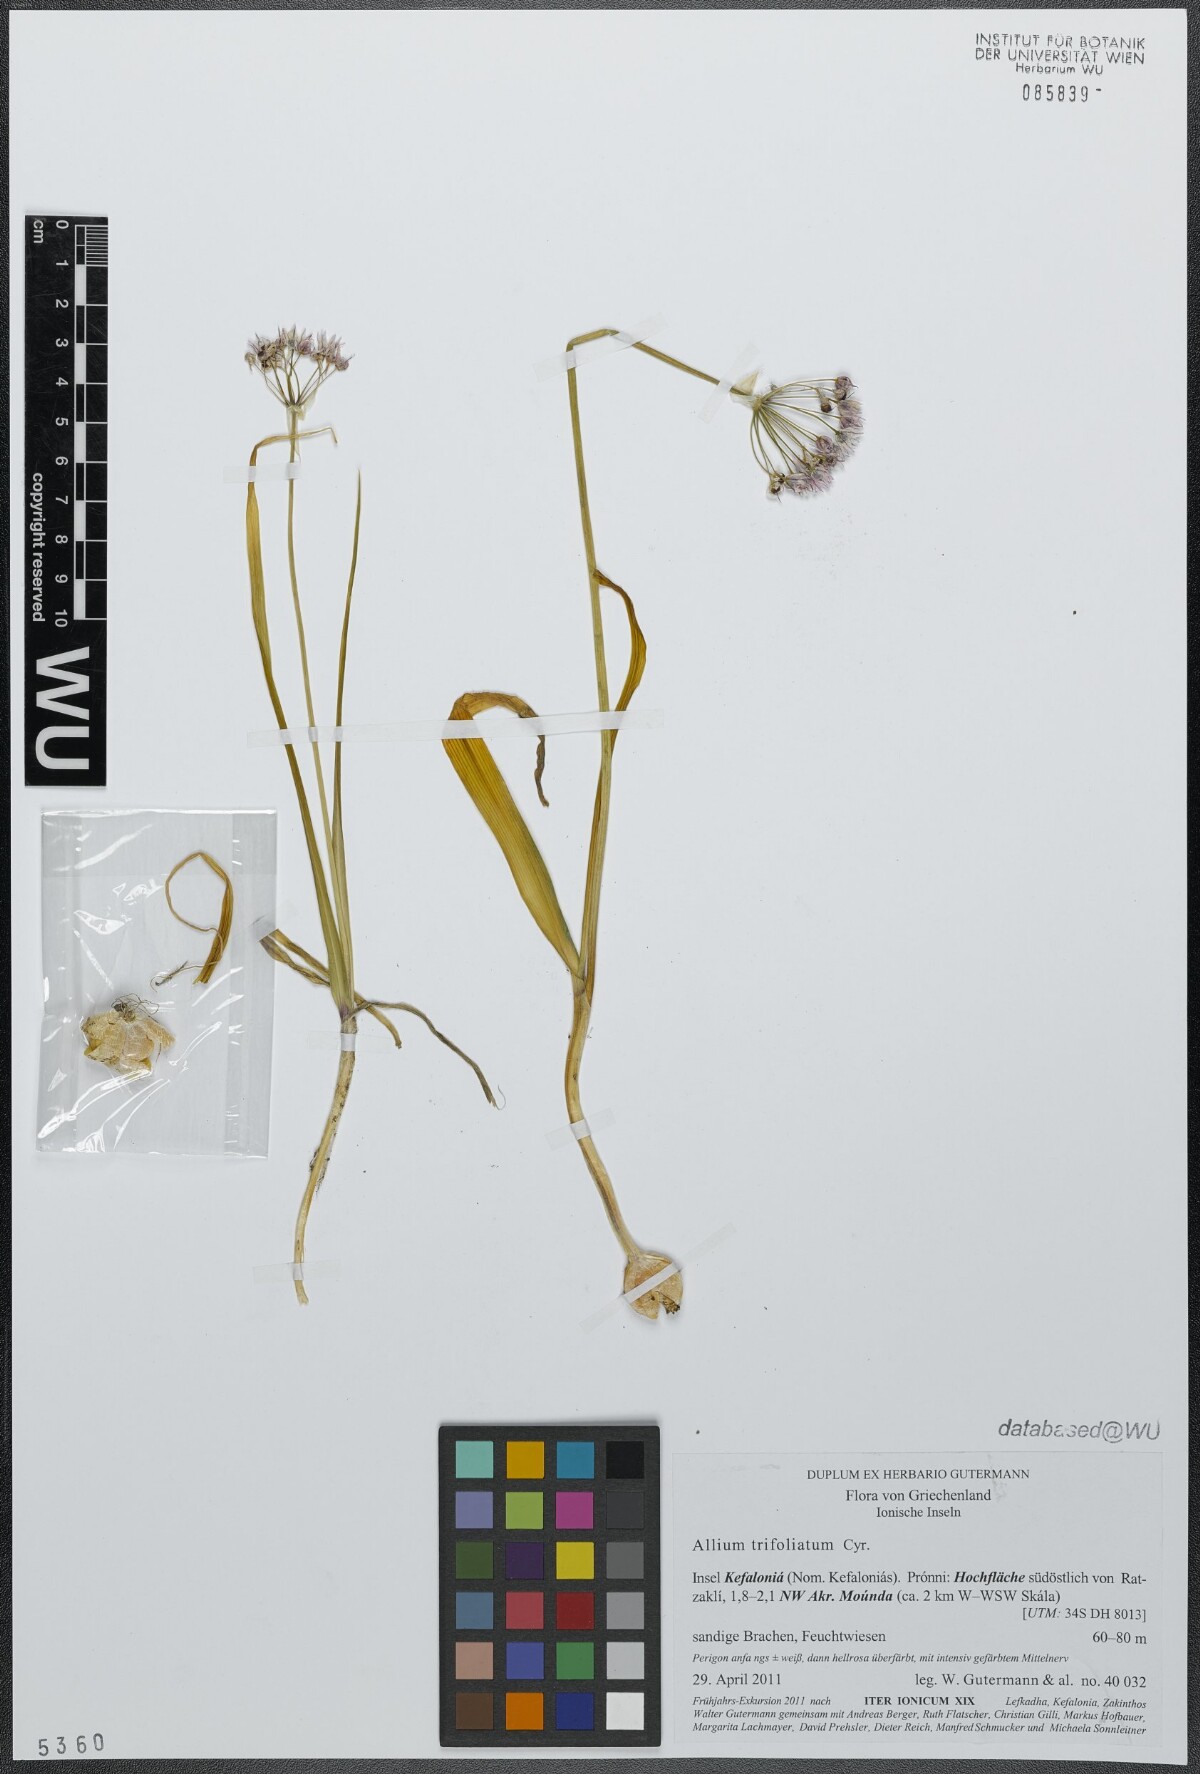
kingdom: Plantae
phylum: Tracheophyta
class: Liliopsida
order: Asparagales
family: Amaryllidaceae
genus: Allium
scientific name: Allium trifoliatum
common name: Pink garlic
